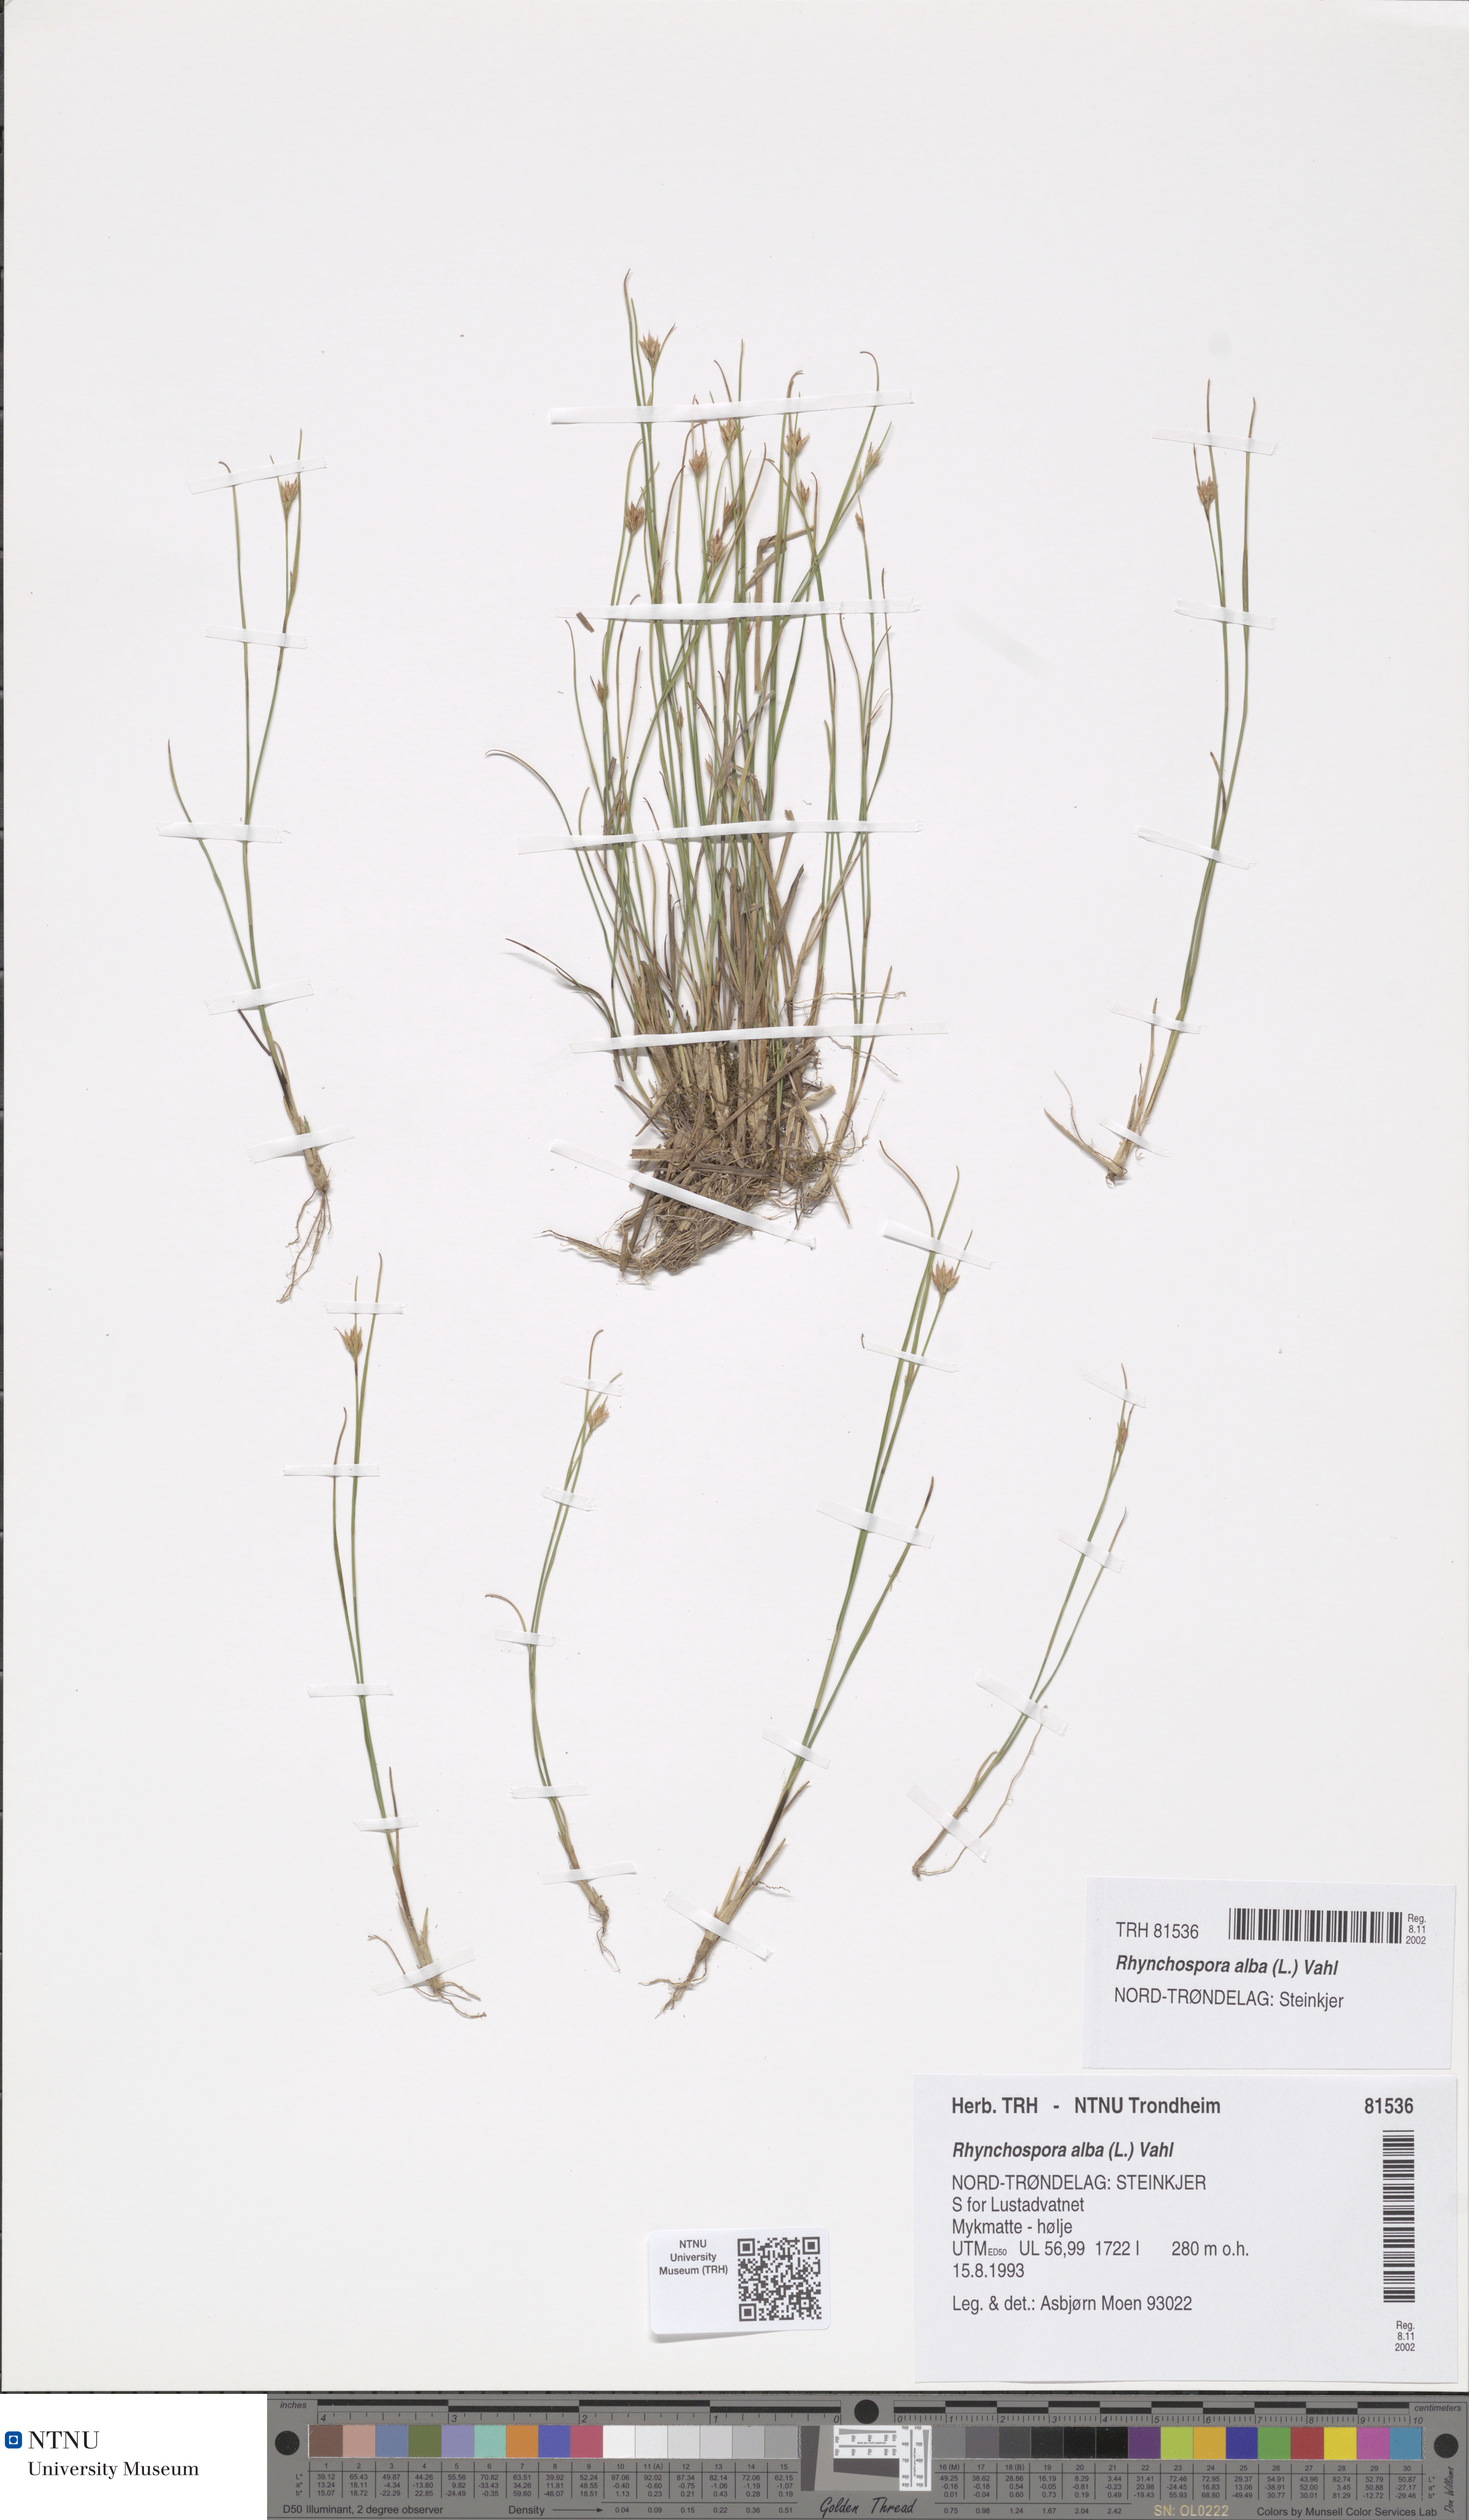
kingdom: Plantae
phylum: Tracheophyta
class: Liliopsida
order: Poales
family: Cyperaceae
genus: Rhynchospora
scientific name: Rhynchospora alba
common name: White beak-sedge
